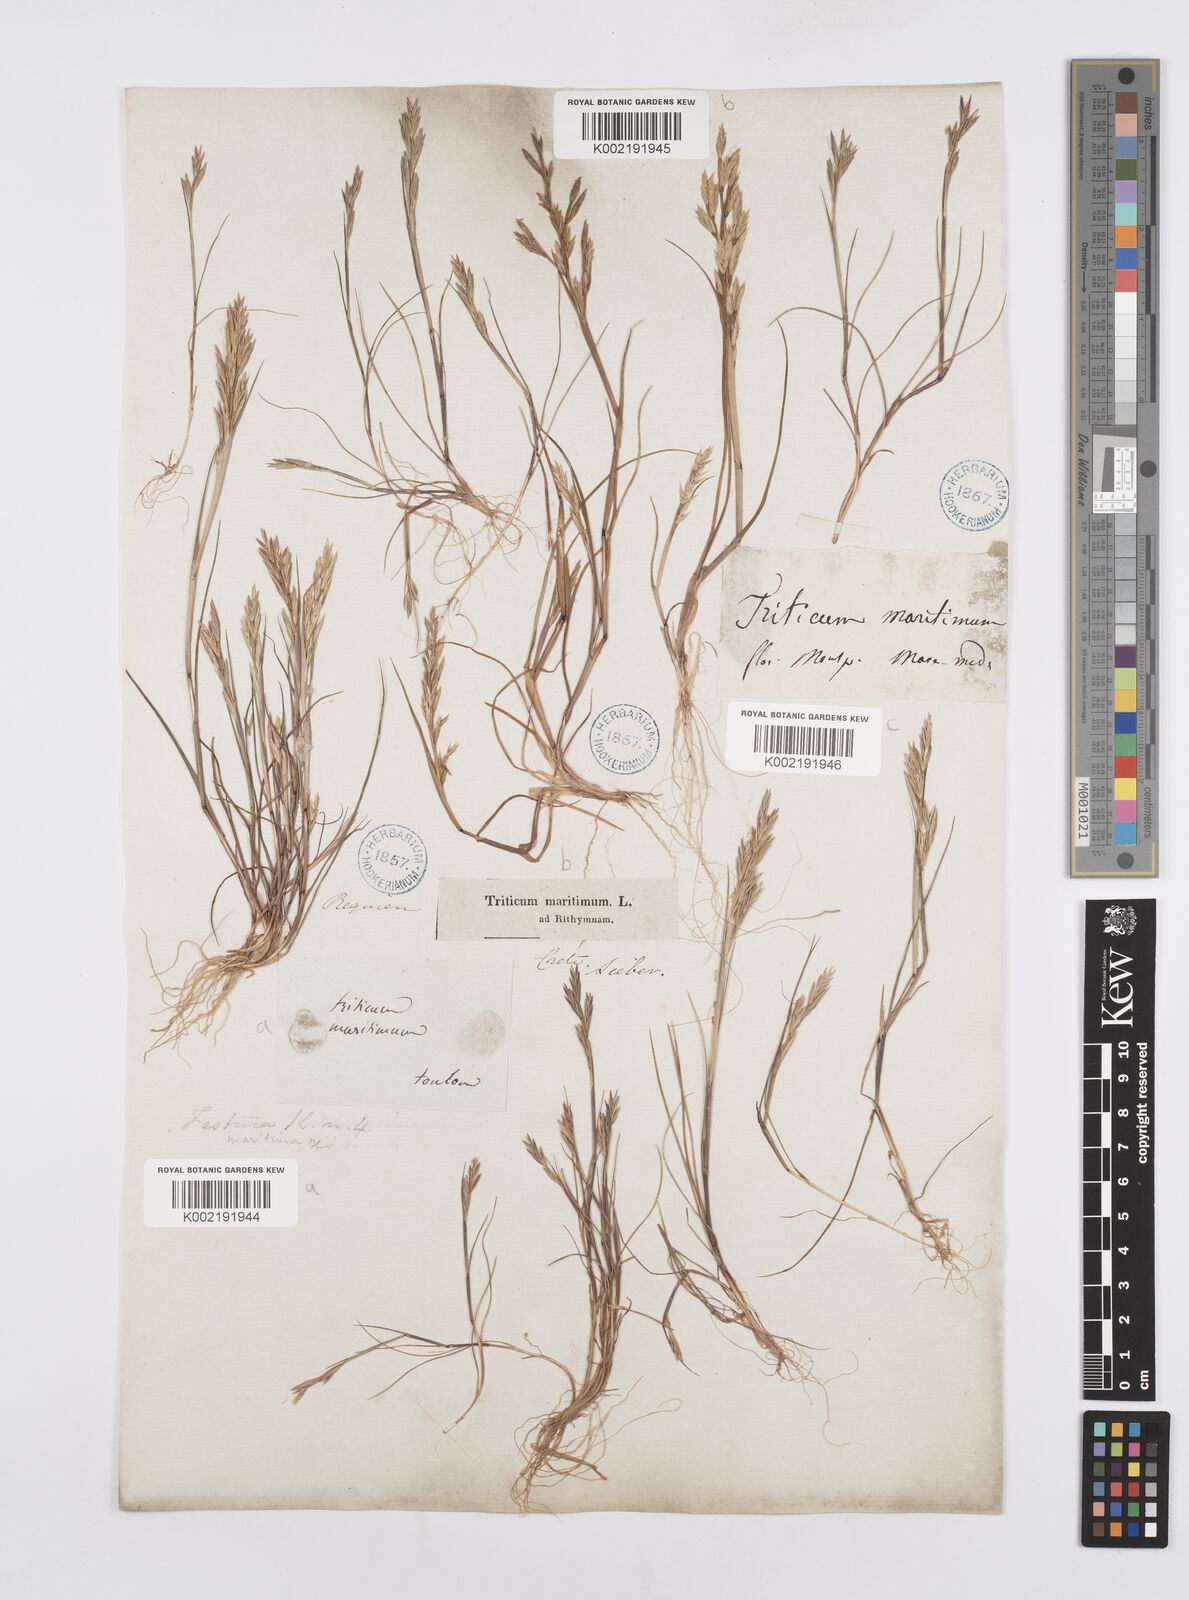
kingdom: Plantae
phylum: Tracheophyta
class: Liliopsida
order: Poales
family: Poaceae
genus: Cutandia
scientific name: Cutandia maritima
